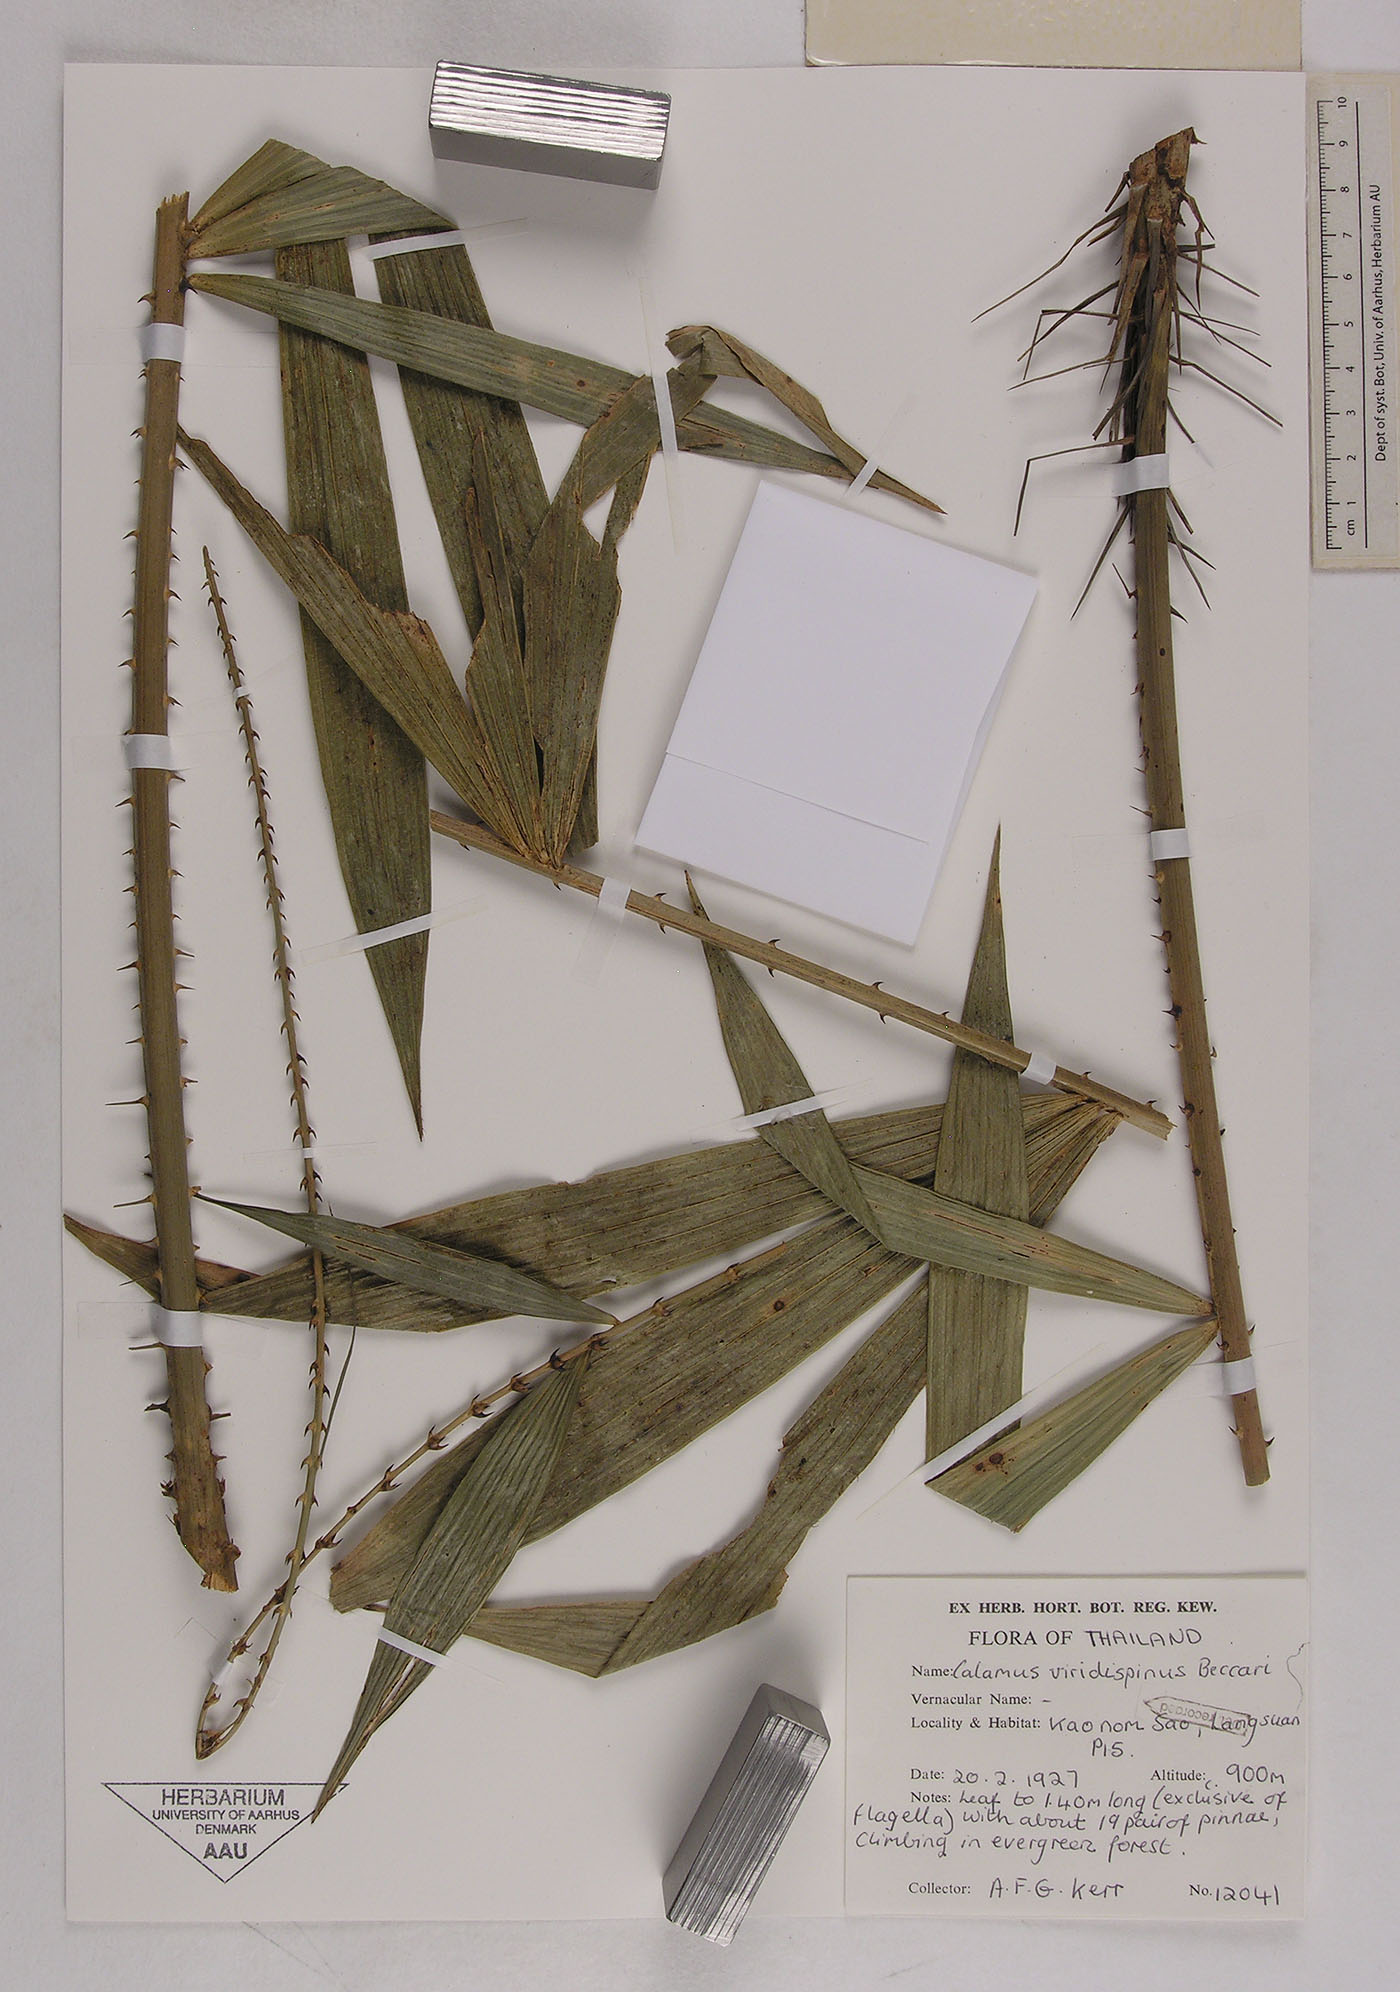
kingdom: Plantae
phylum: Tracheophyta
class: Liliopsida
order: Arecales
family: Arecaceae
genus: Calamus
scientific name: Calamus helferianus
